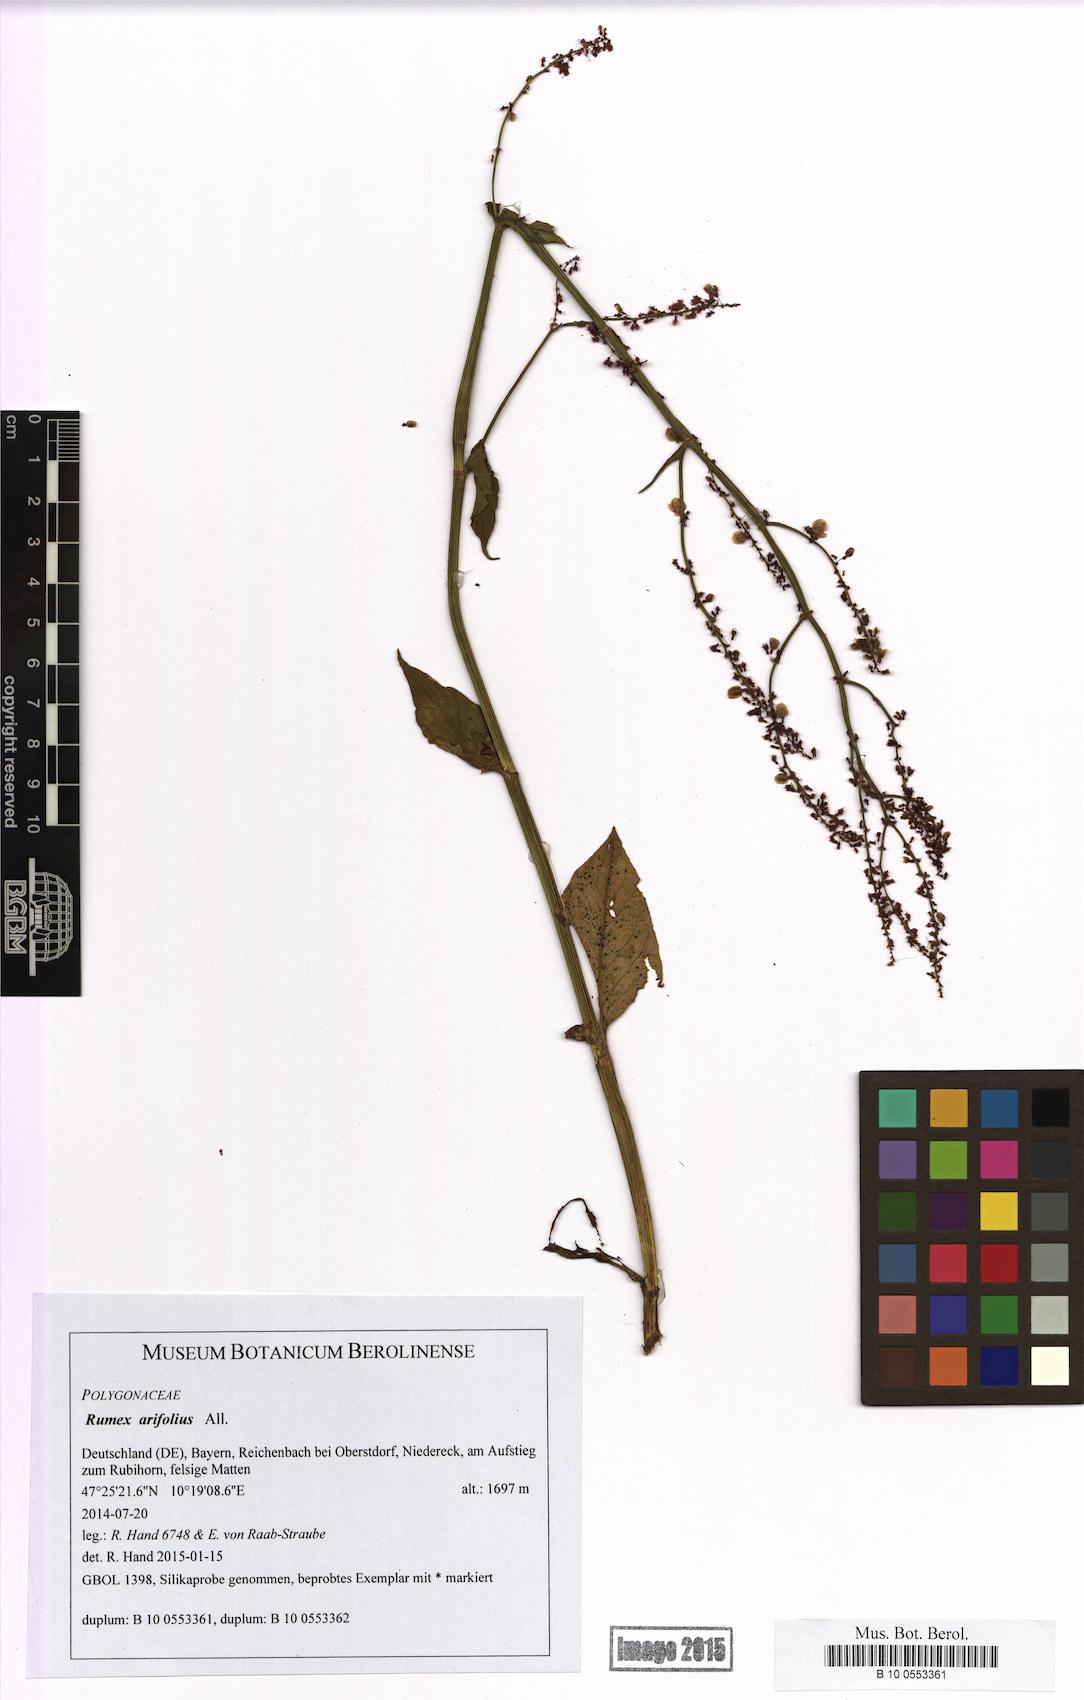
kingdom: Plantae
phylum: Tracheophyta
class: Magnoliopsida
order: Caryophyllales
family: Polygonaceae
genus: Rumex
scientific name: Rumex arifolius
